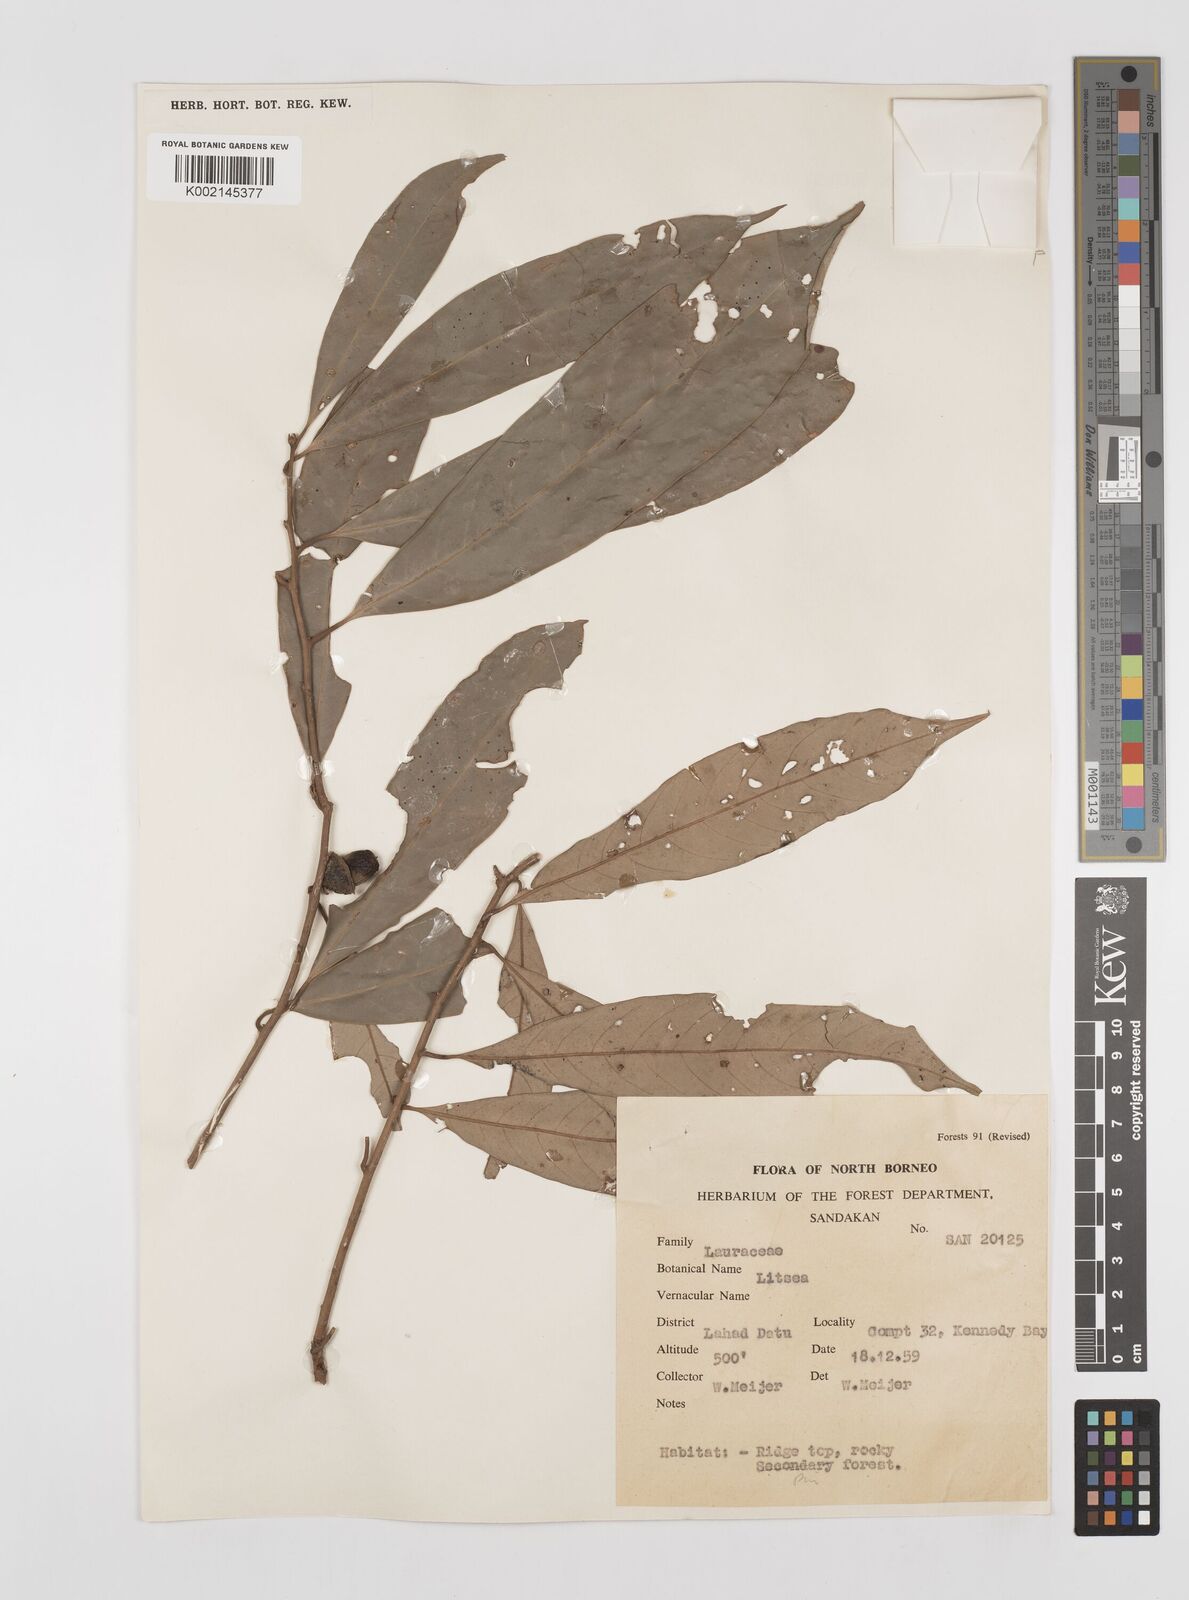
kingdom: Plantae
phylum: Tracheophyta
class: Magnoliopsida
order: Laurales
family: Lauraceae
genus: Litsea
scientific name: Litsea
